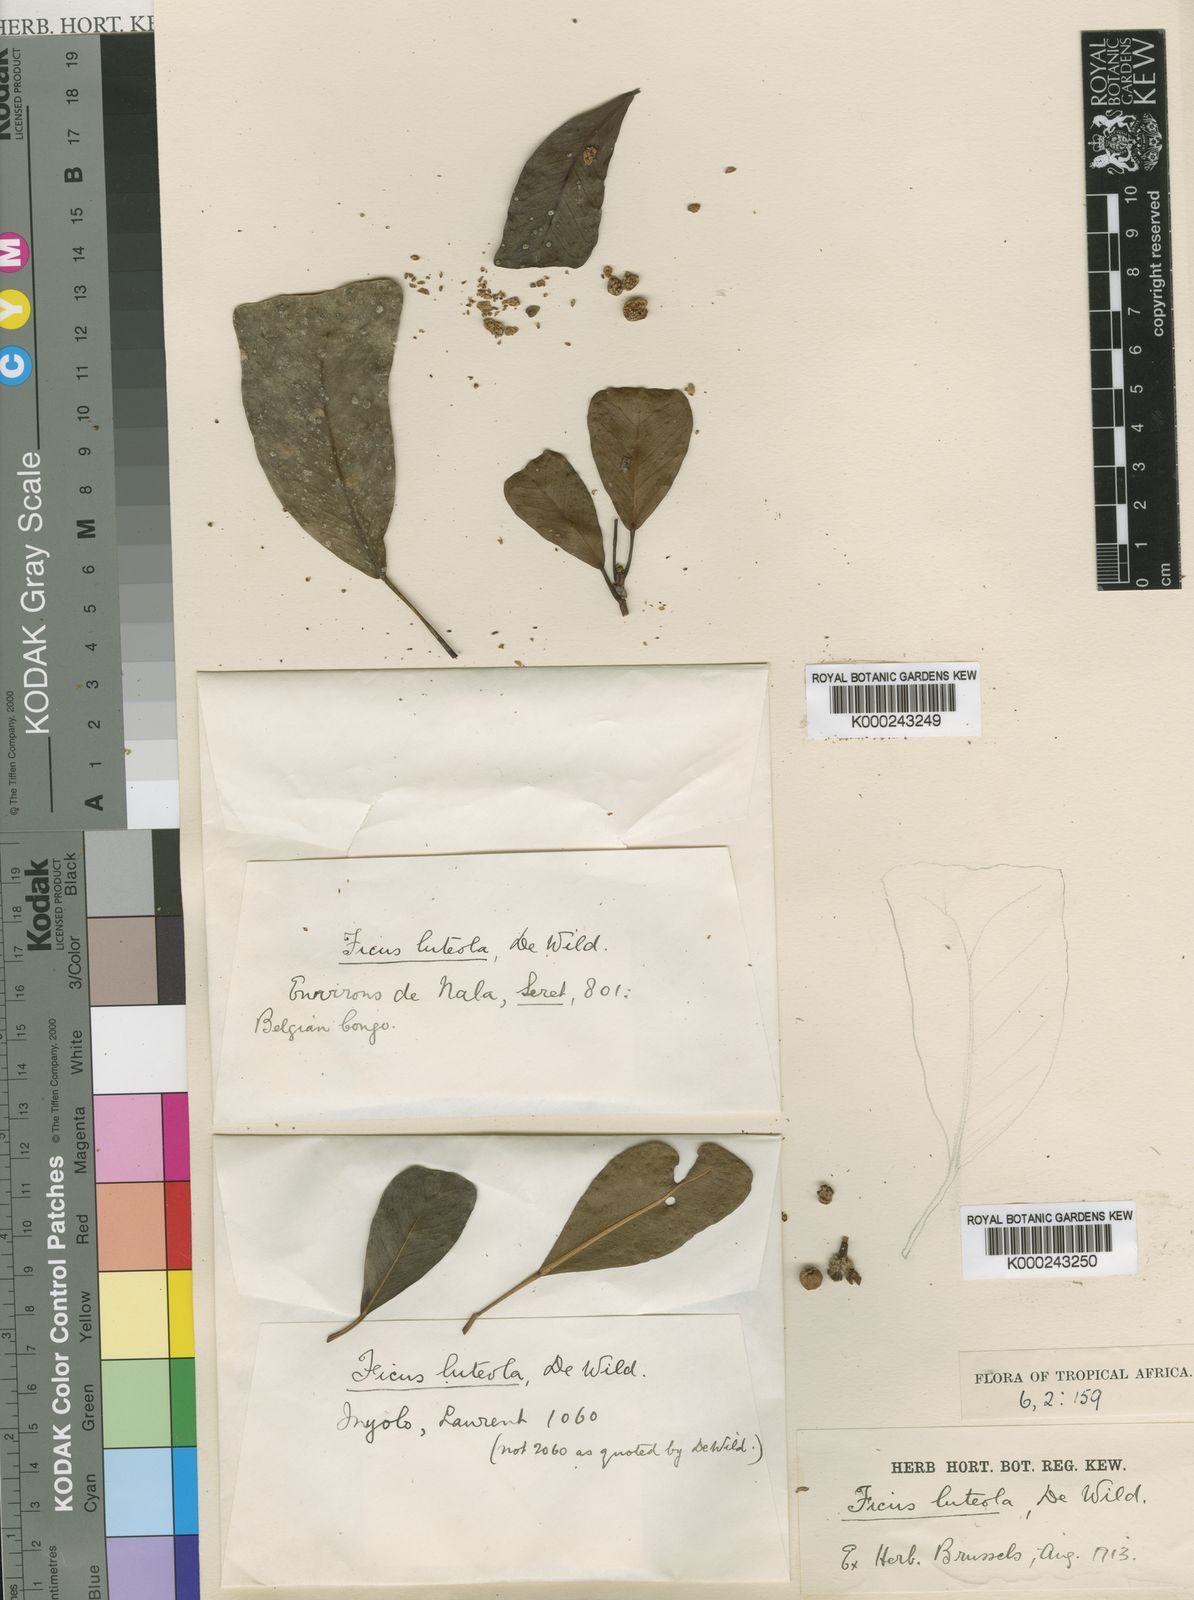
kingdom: Plantae
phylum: Tracheophyta
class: Magnoliopsida
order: Rosales
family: Moraceae
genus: Ficus
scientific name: Ficus craterostoma
